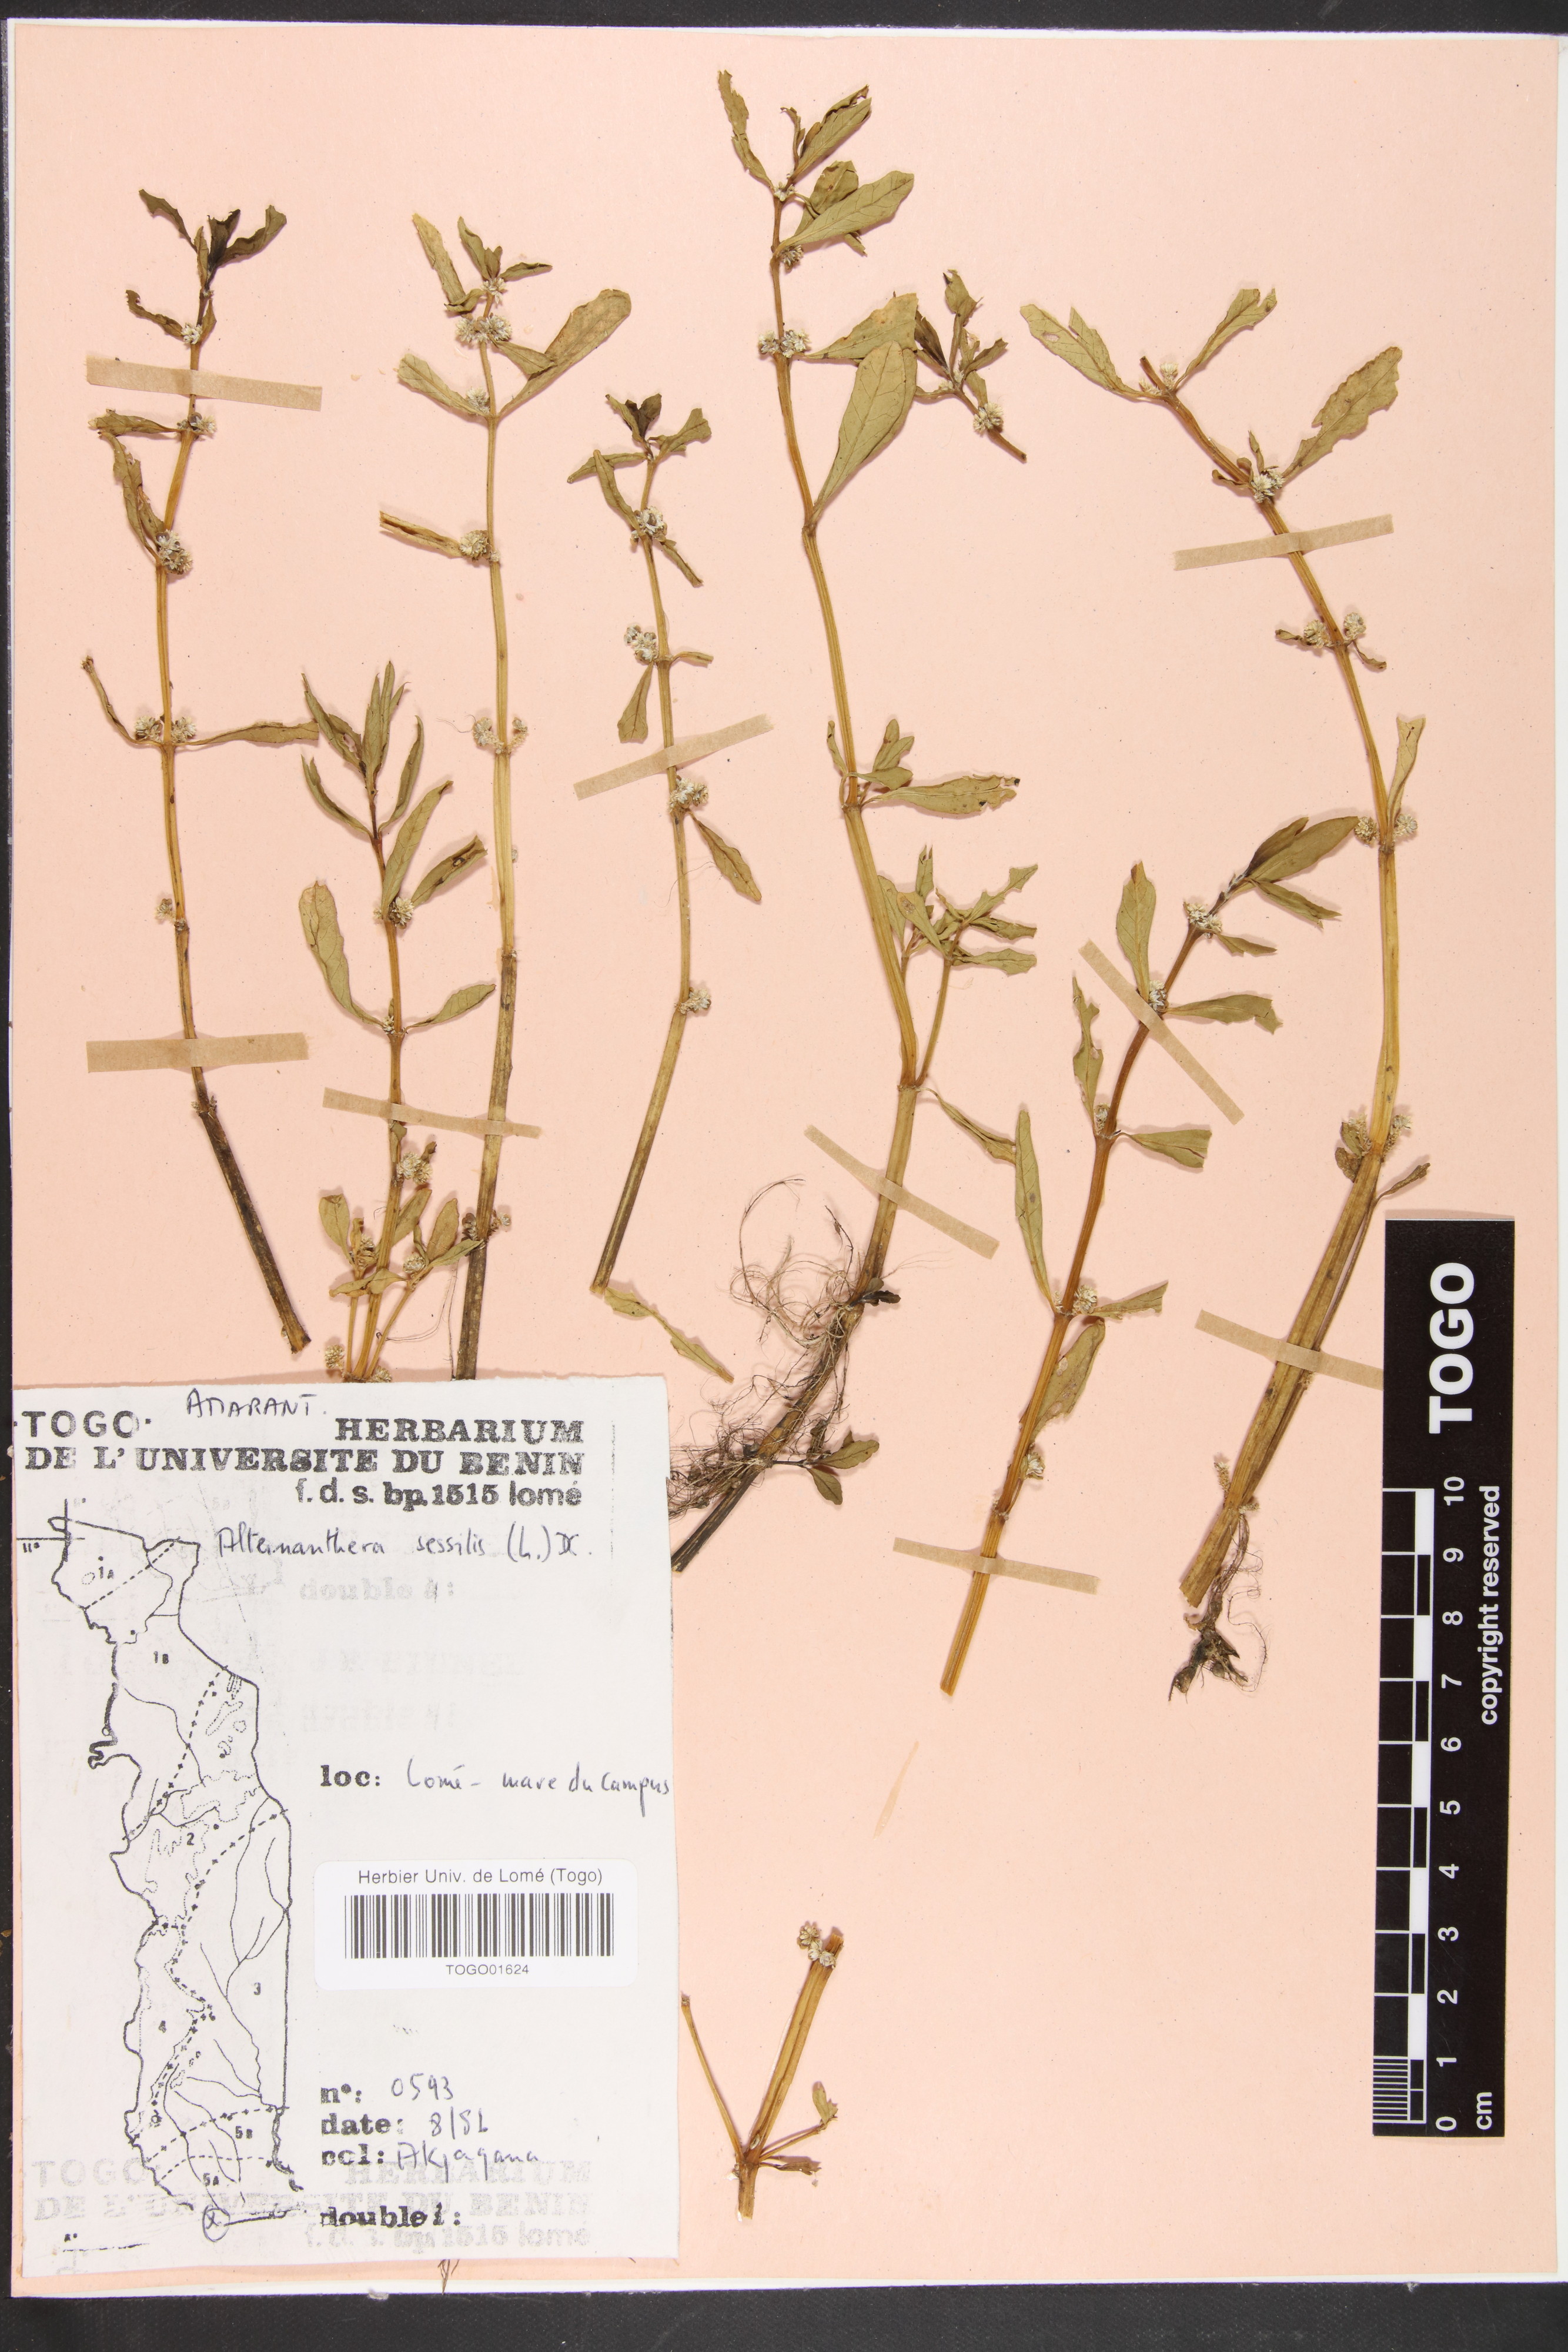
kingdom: Plantae
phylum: Tracheophyta
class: Magnoliopsida
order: Caryophyllales
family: Amaranthaceae
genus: Alternanthera
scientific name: Alternanthera sessilis
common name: Sessile joyweed
